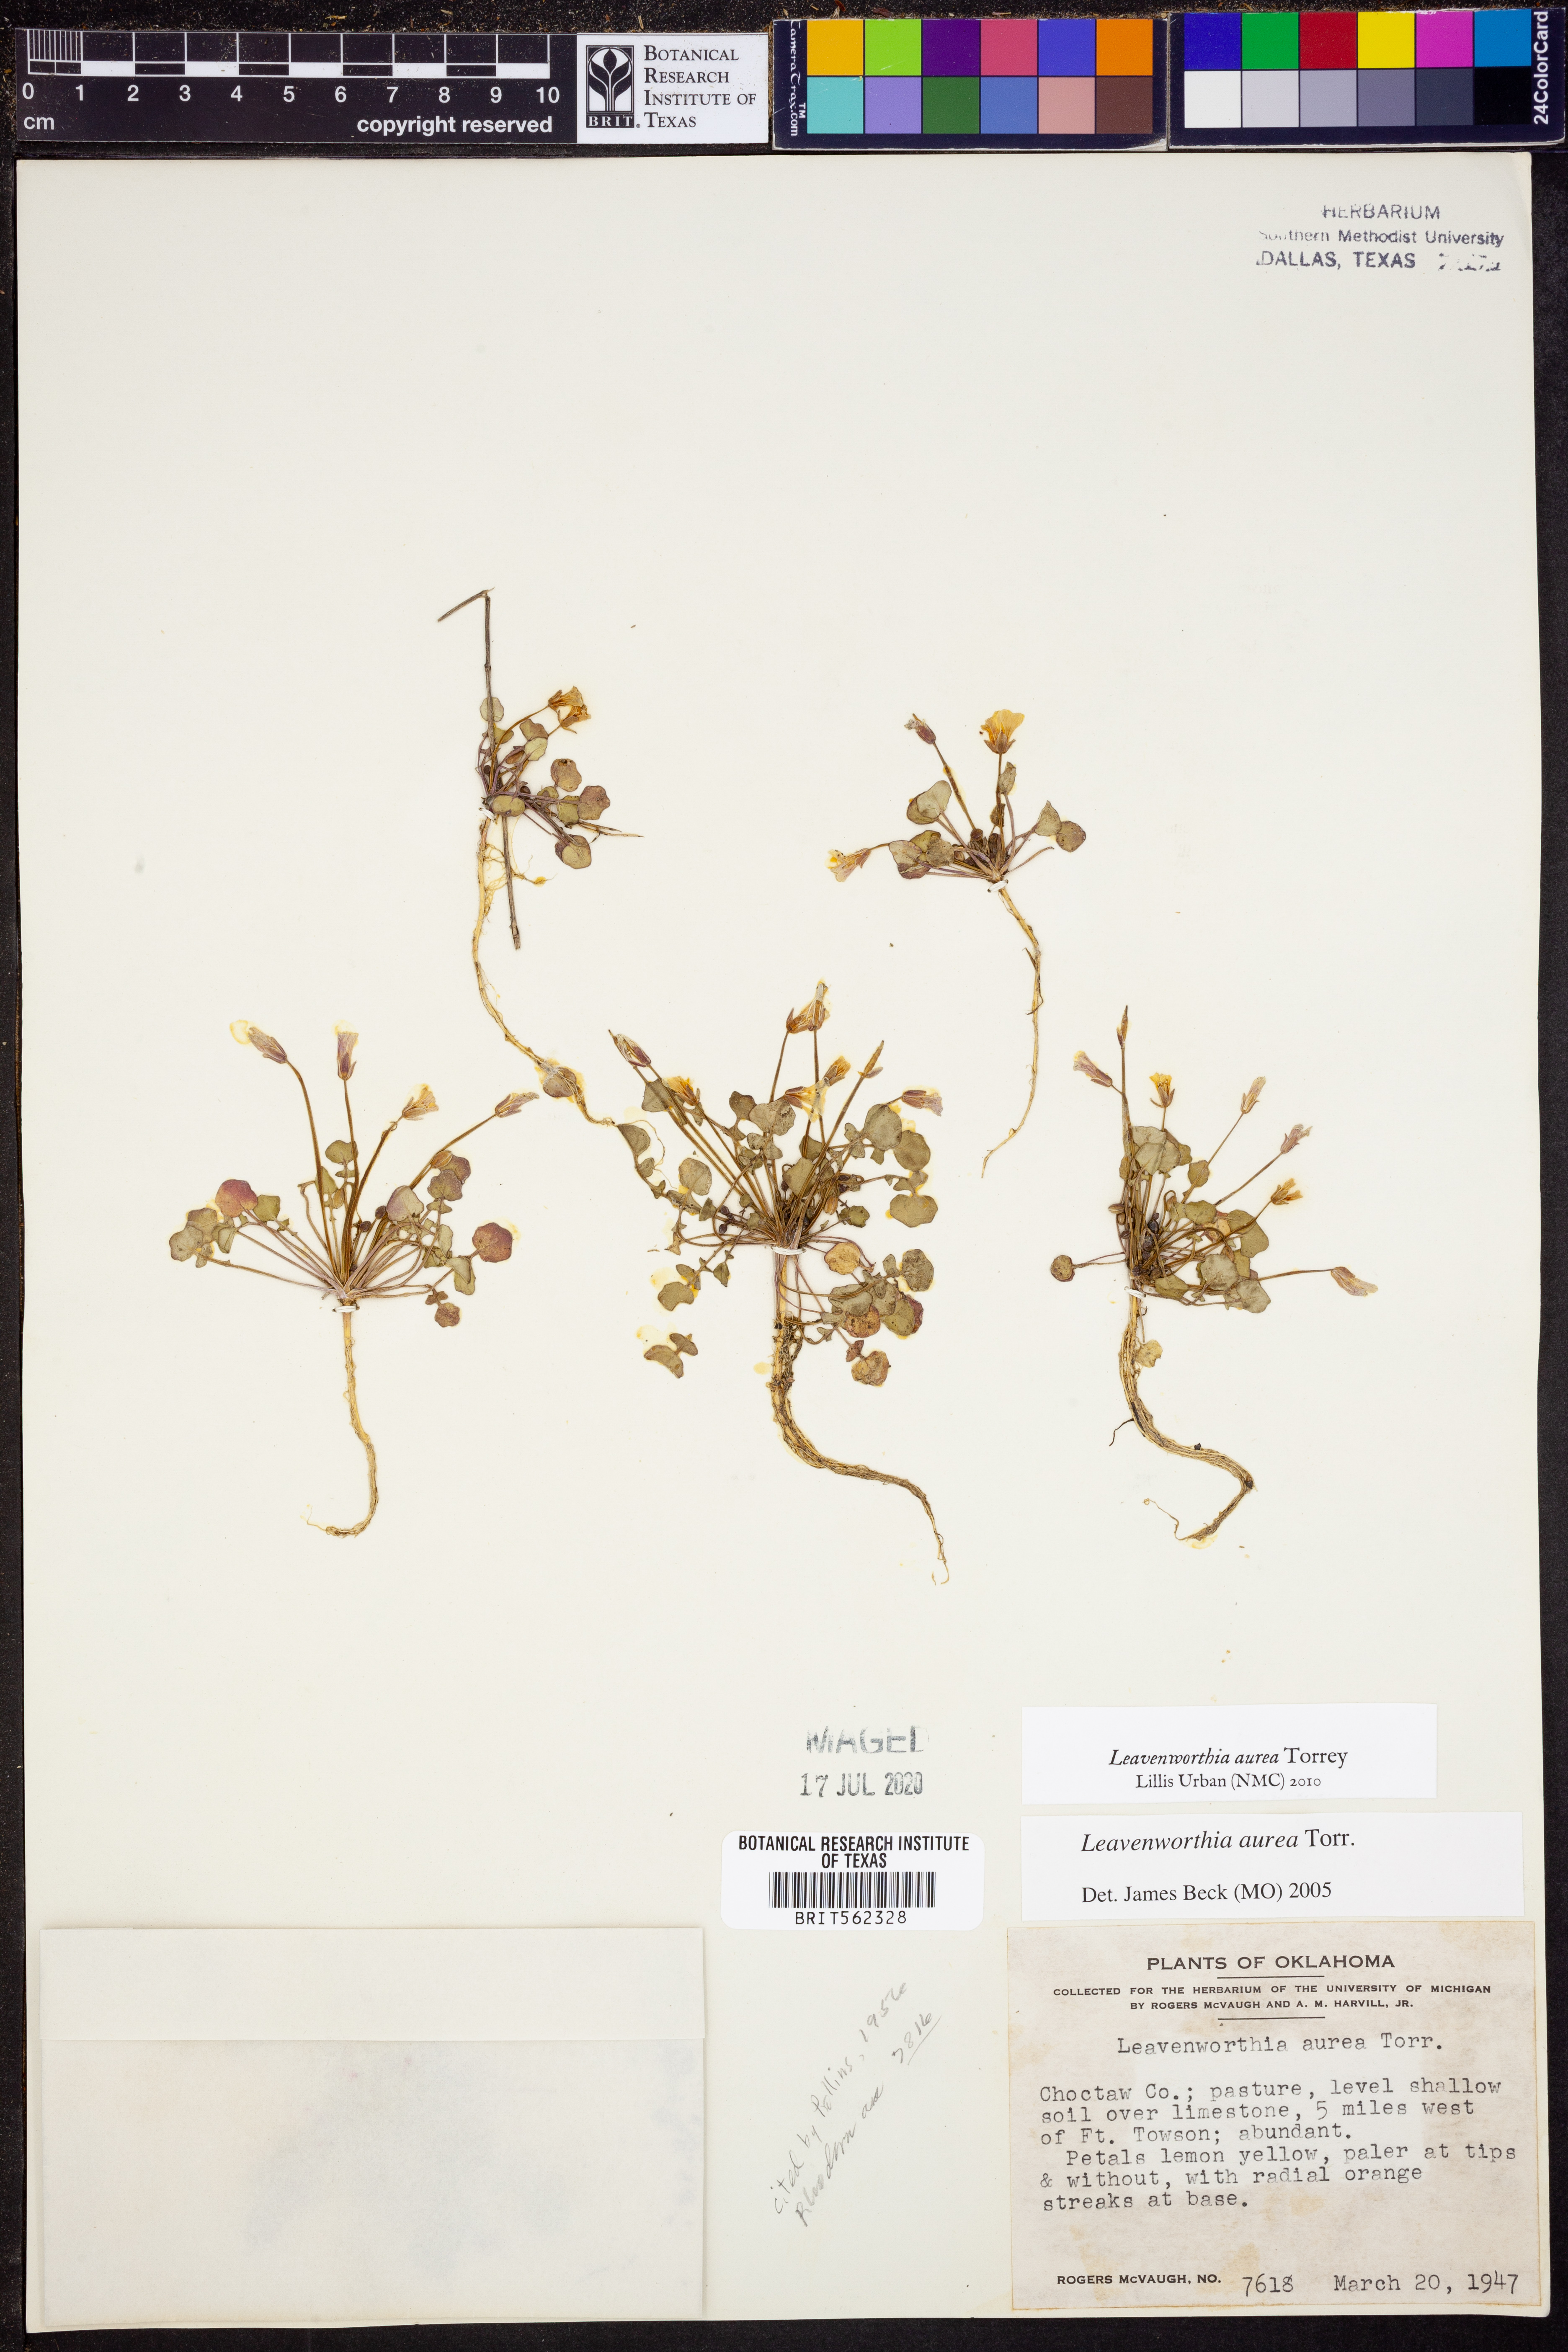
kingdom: Plantae
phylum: Tracheophyta
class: Magnoliopsida
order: Brassicales
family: Brassicaceae
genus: Leavenworthia
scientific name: Leavenworthia aurea
